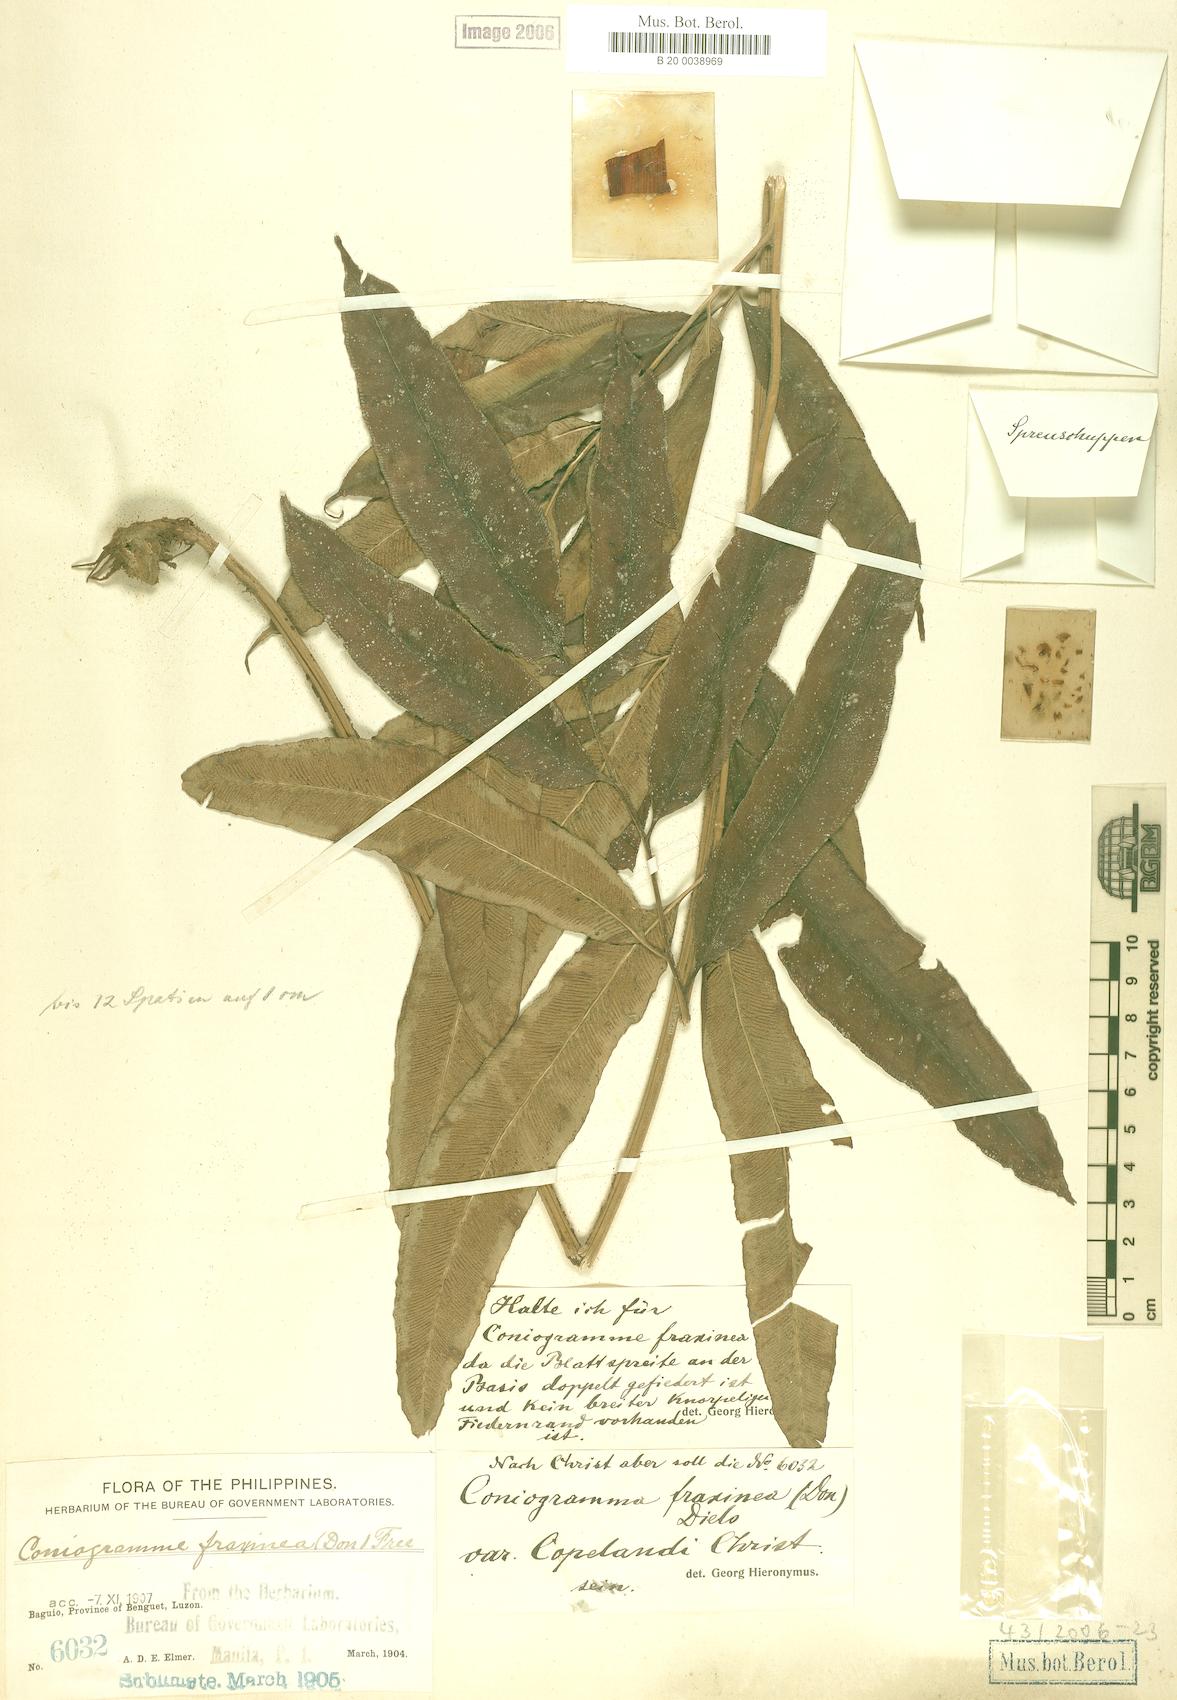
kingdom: Plantae
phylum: Tracheophyta
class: Polypodiopsida
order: Polypodiales
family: Pteridaceae
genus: Coniogramme
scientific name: Coniogramme fraxinea
